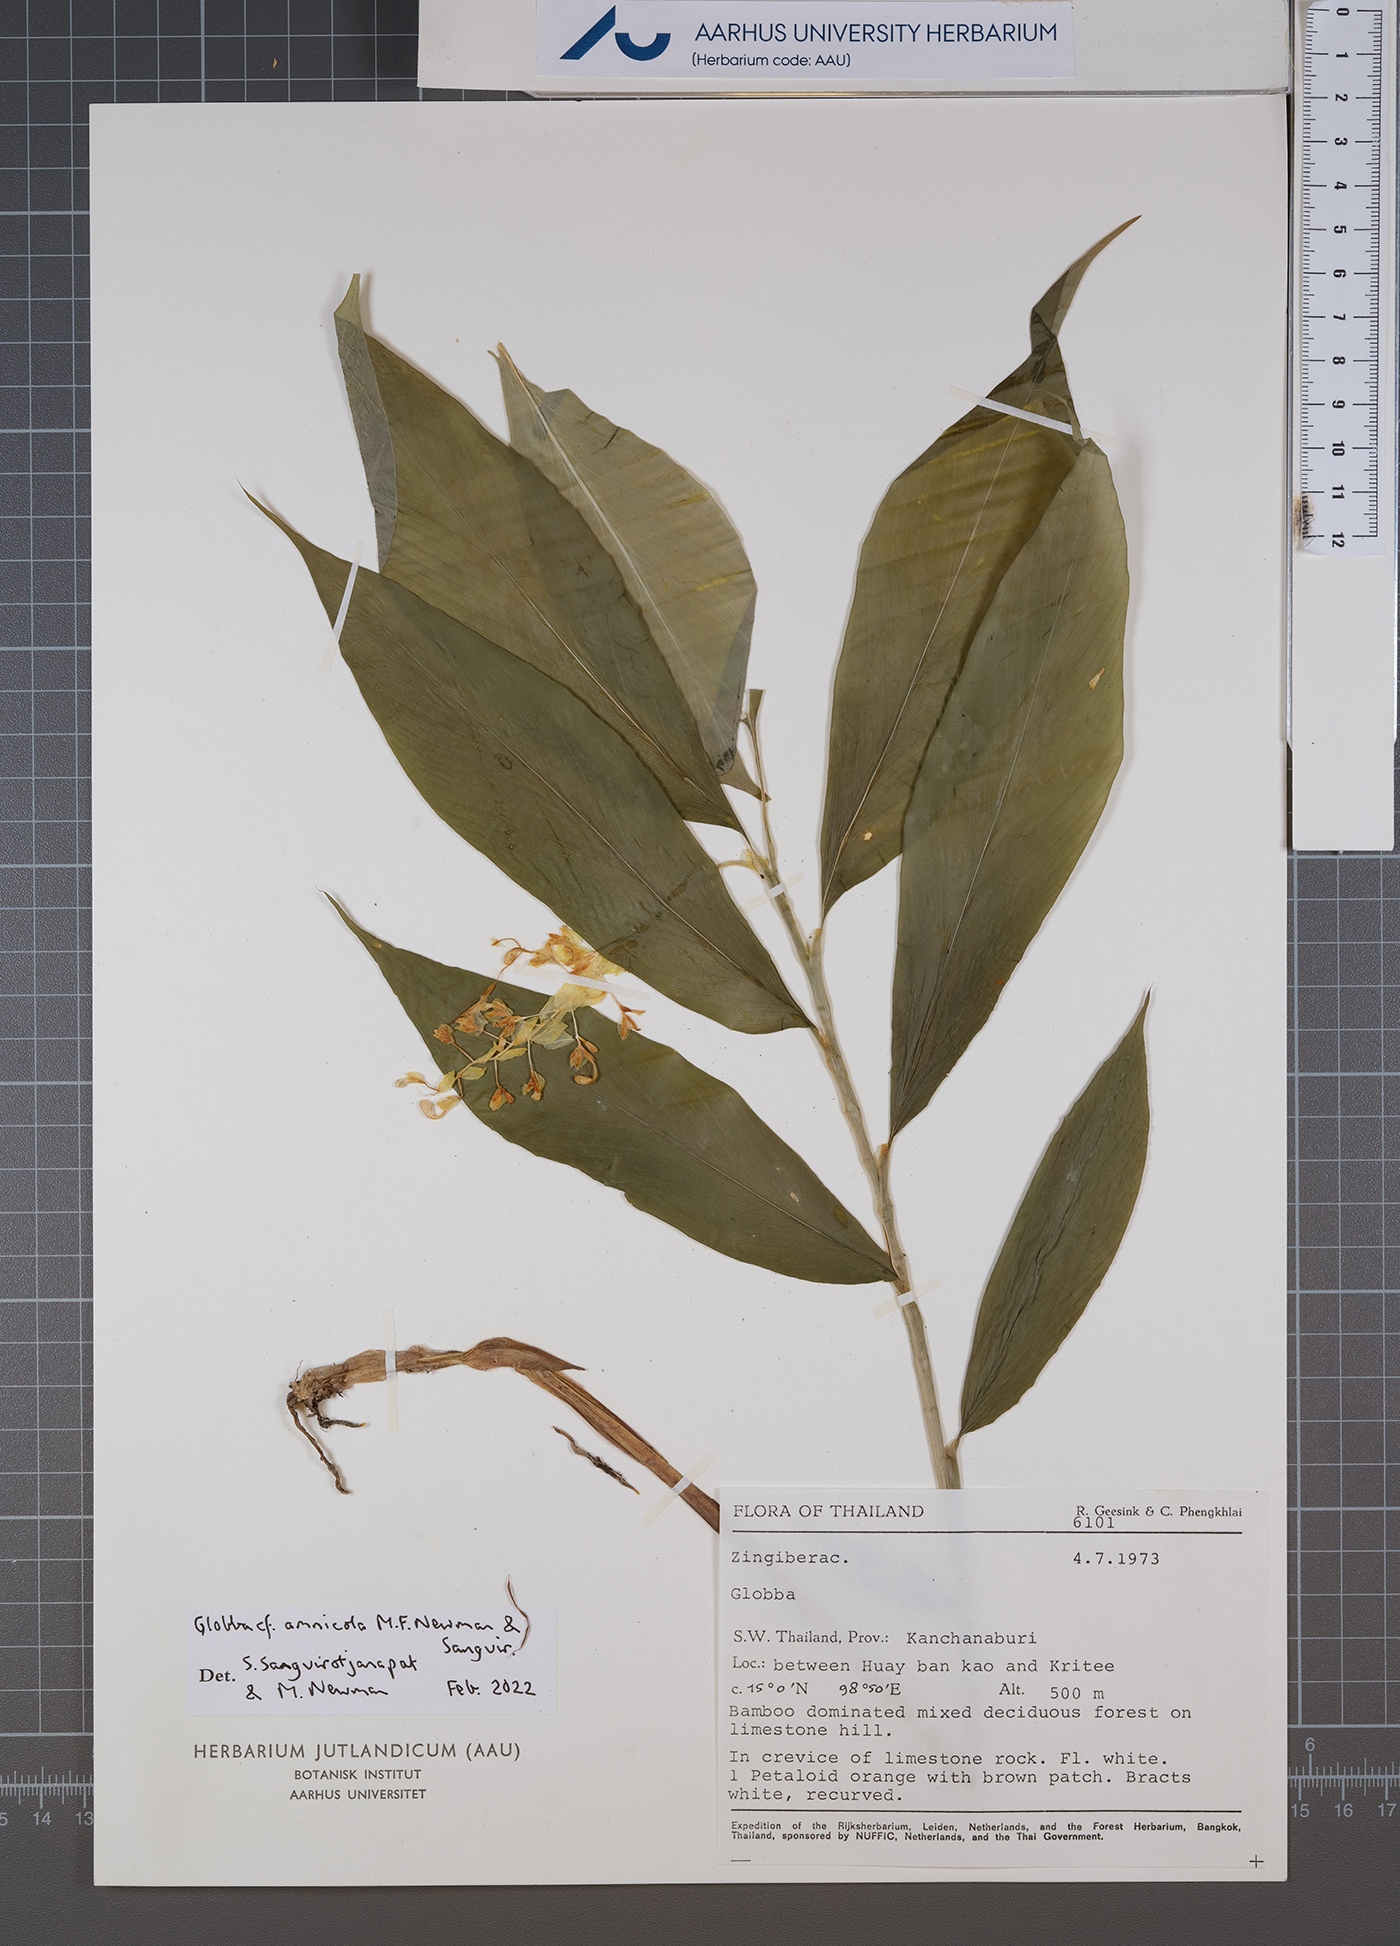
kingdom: Plantae
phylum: Tracheophyta
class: Liliopsida
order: Zingiberales
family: Zingiberaceae
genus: Globba
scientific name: Globba amnicola
